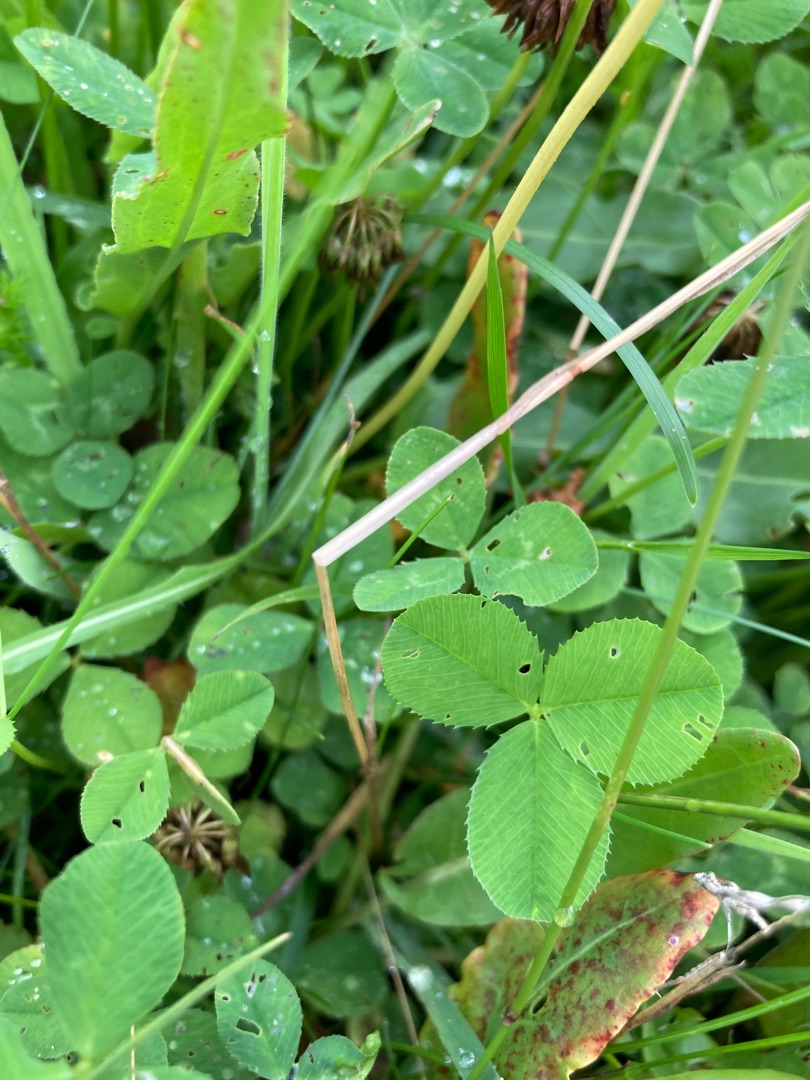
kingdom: Plantae
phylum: Tracheophyta
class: Magnoliopsida
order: Fabales
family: Fabaceae
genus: Trifolium
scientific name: Trifolium repens
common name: Hvid-kløver
